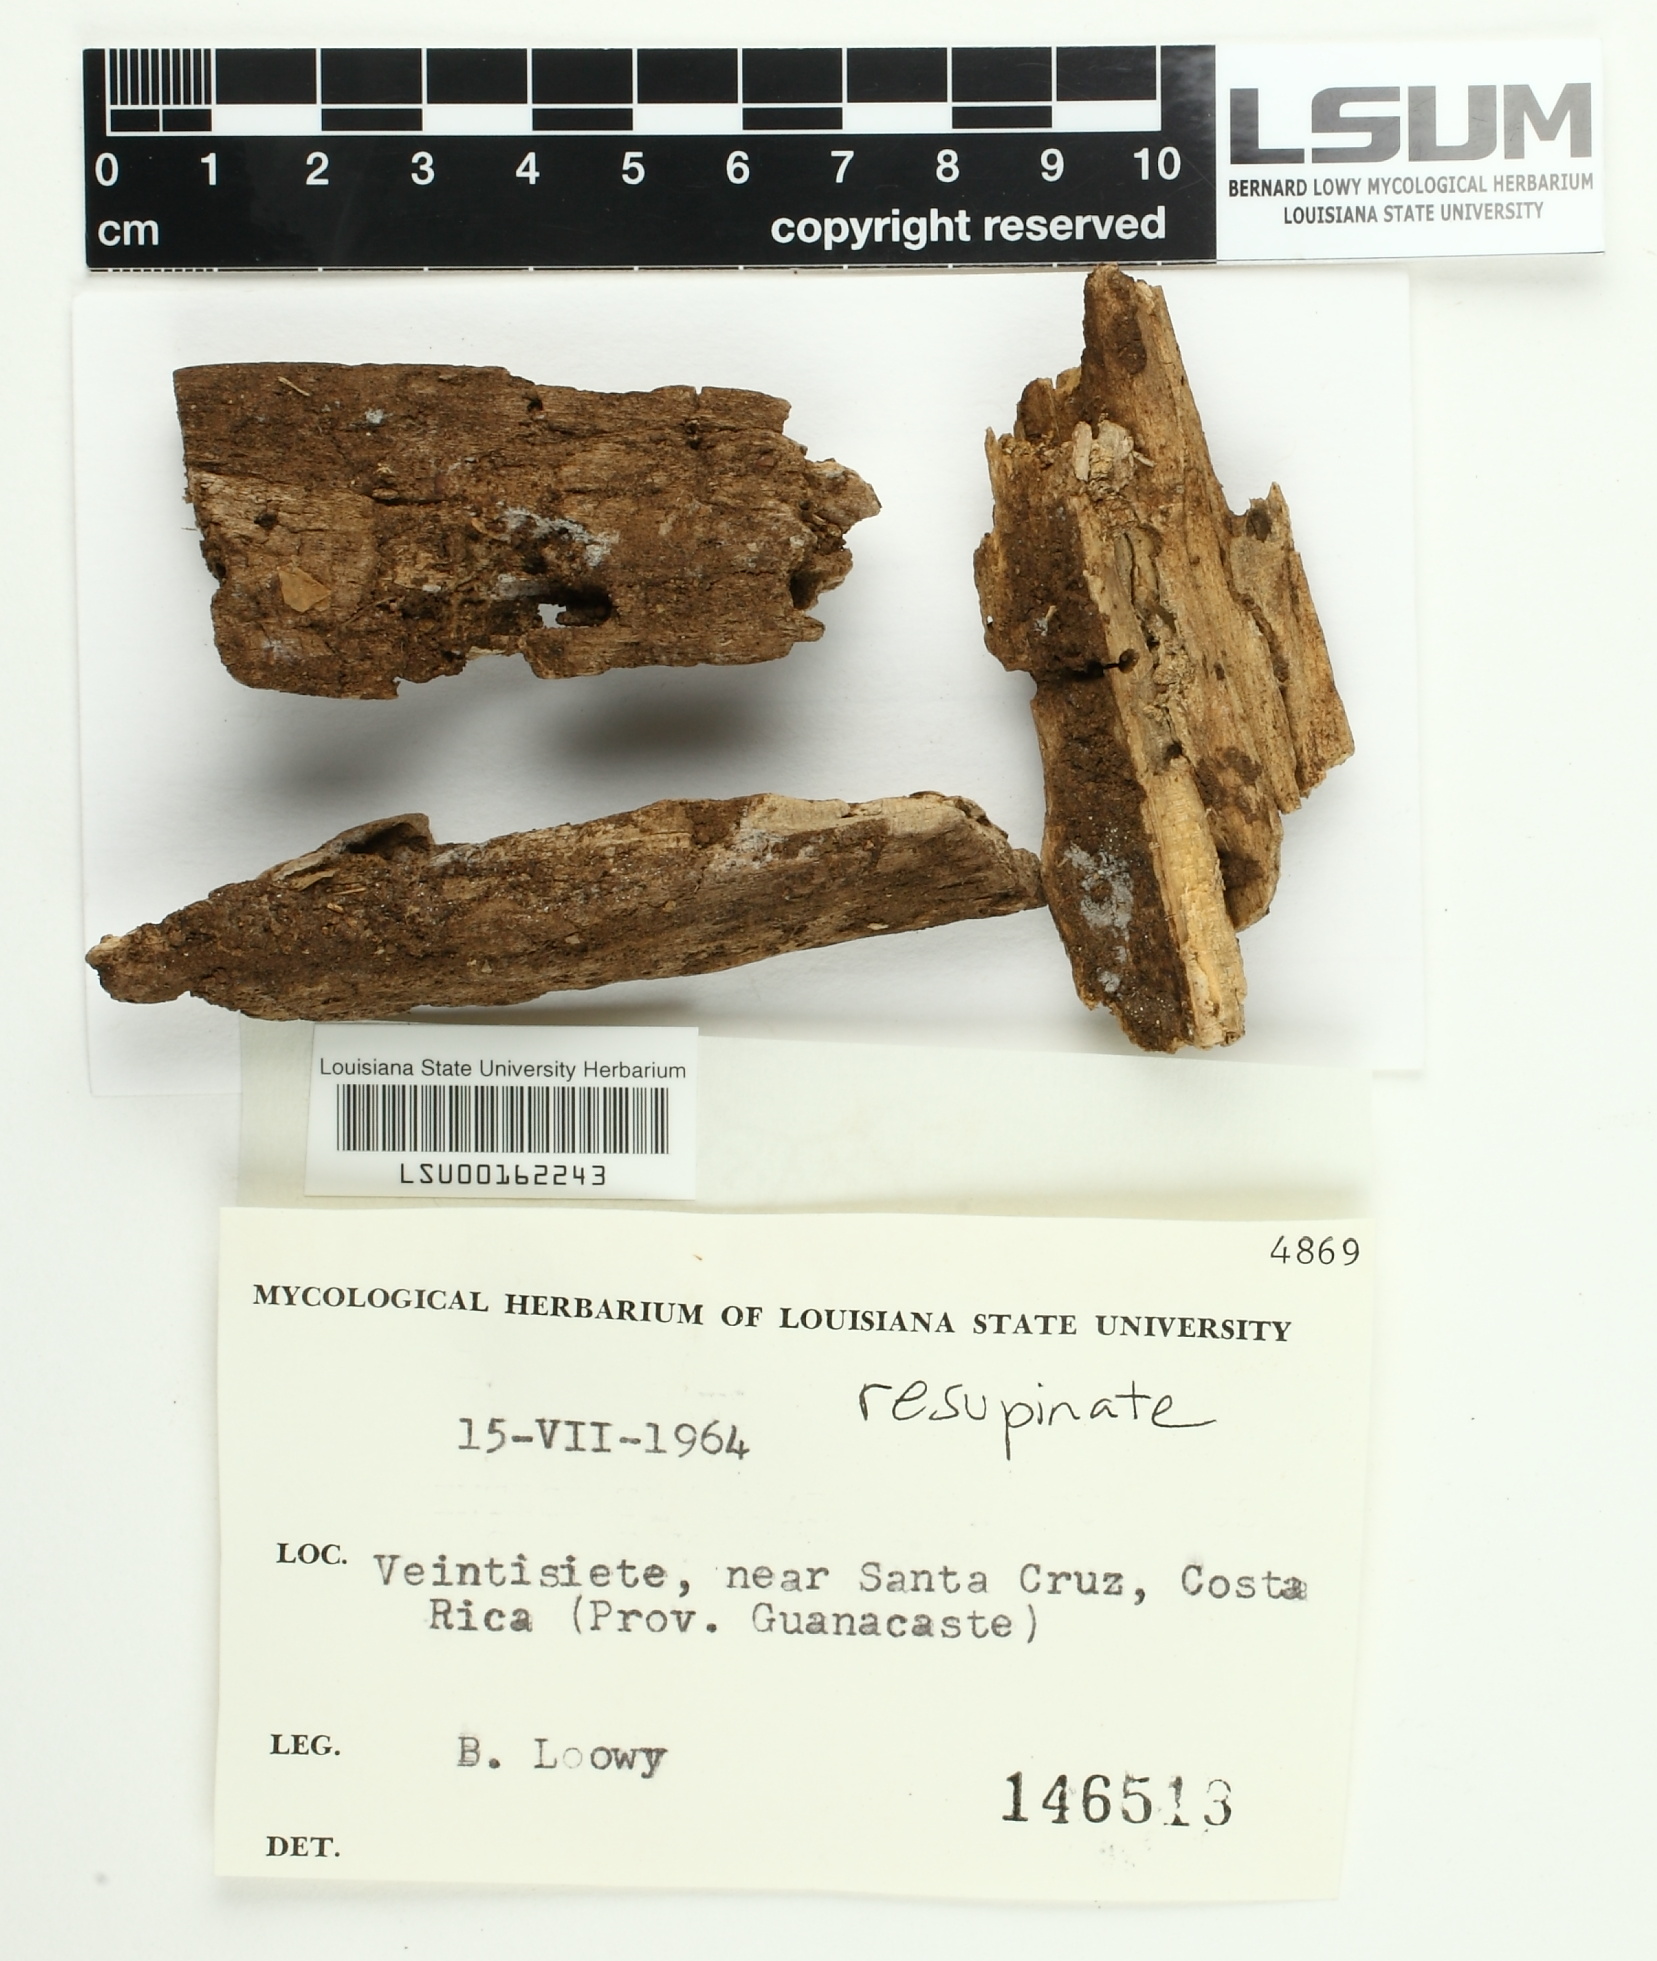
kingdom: Fungi
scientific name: Fungi
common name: Fungi
